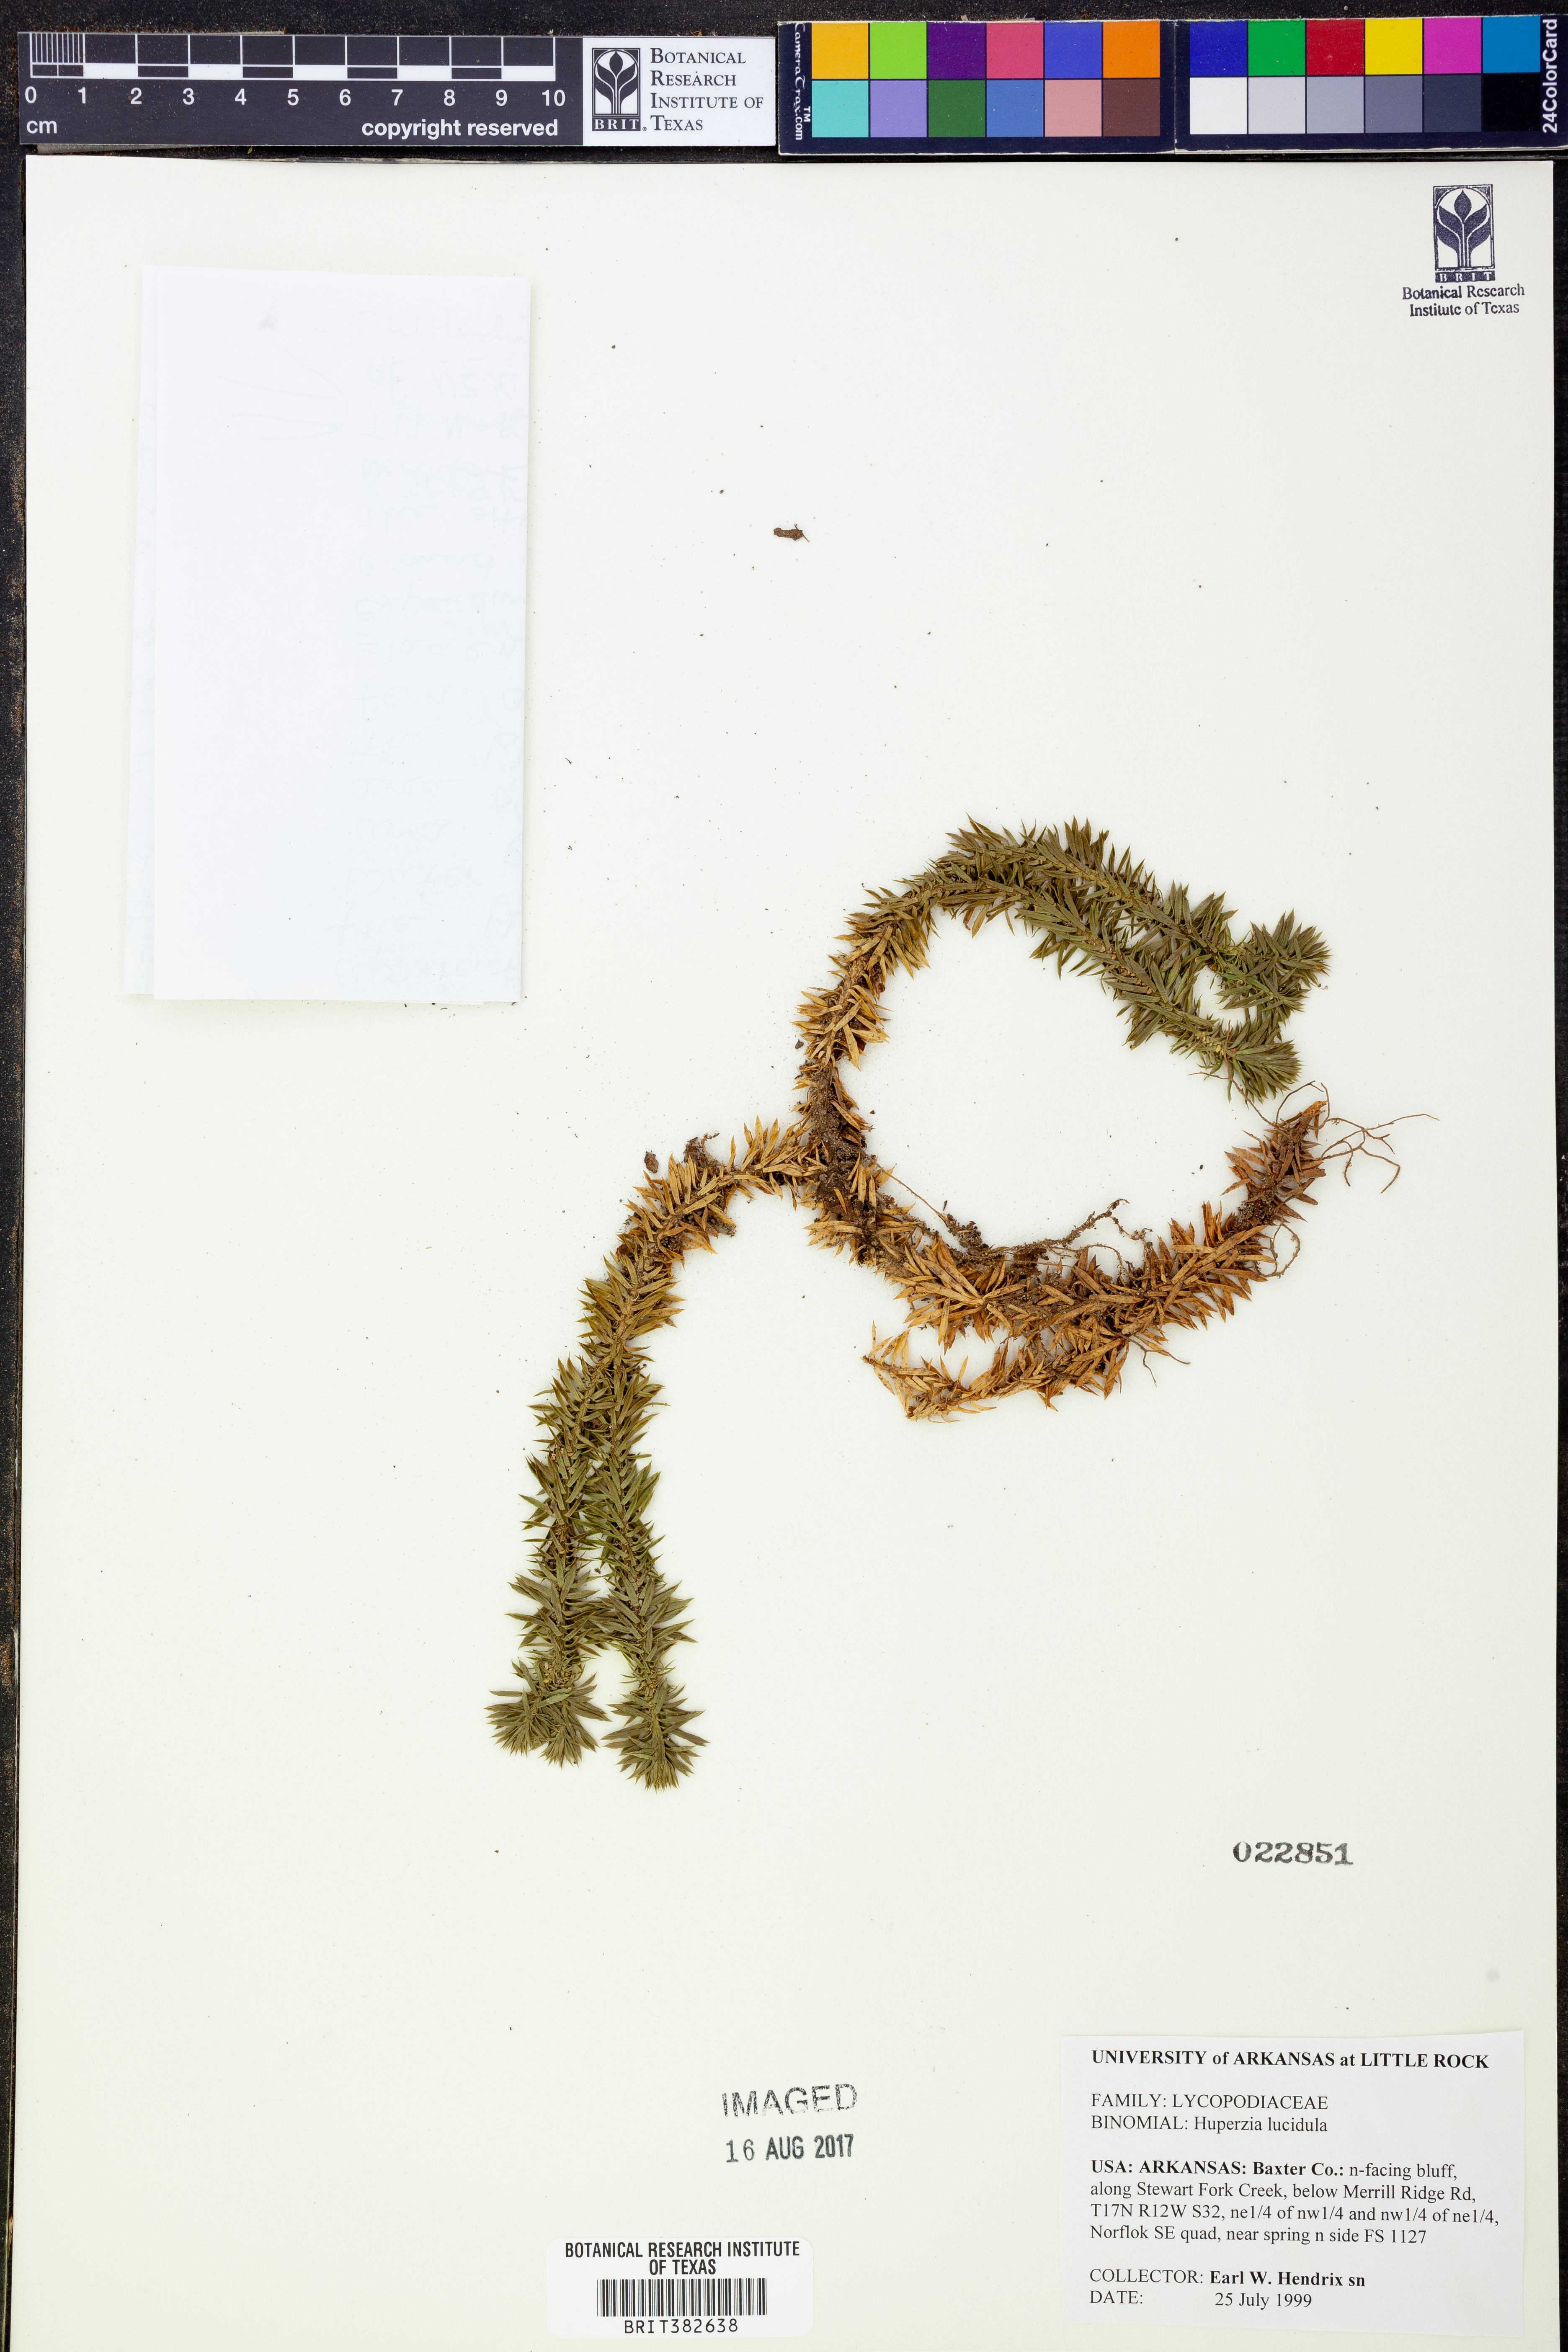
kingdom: Plantae
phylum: Tracheophyta
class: Lycopodiopsida
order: Lycopodiales
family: Lycopodiaceae
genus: Huperzia
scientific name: Huperzia lucidula
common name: Shining clubmoss
